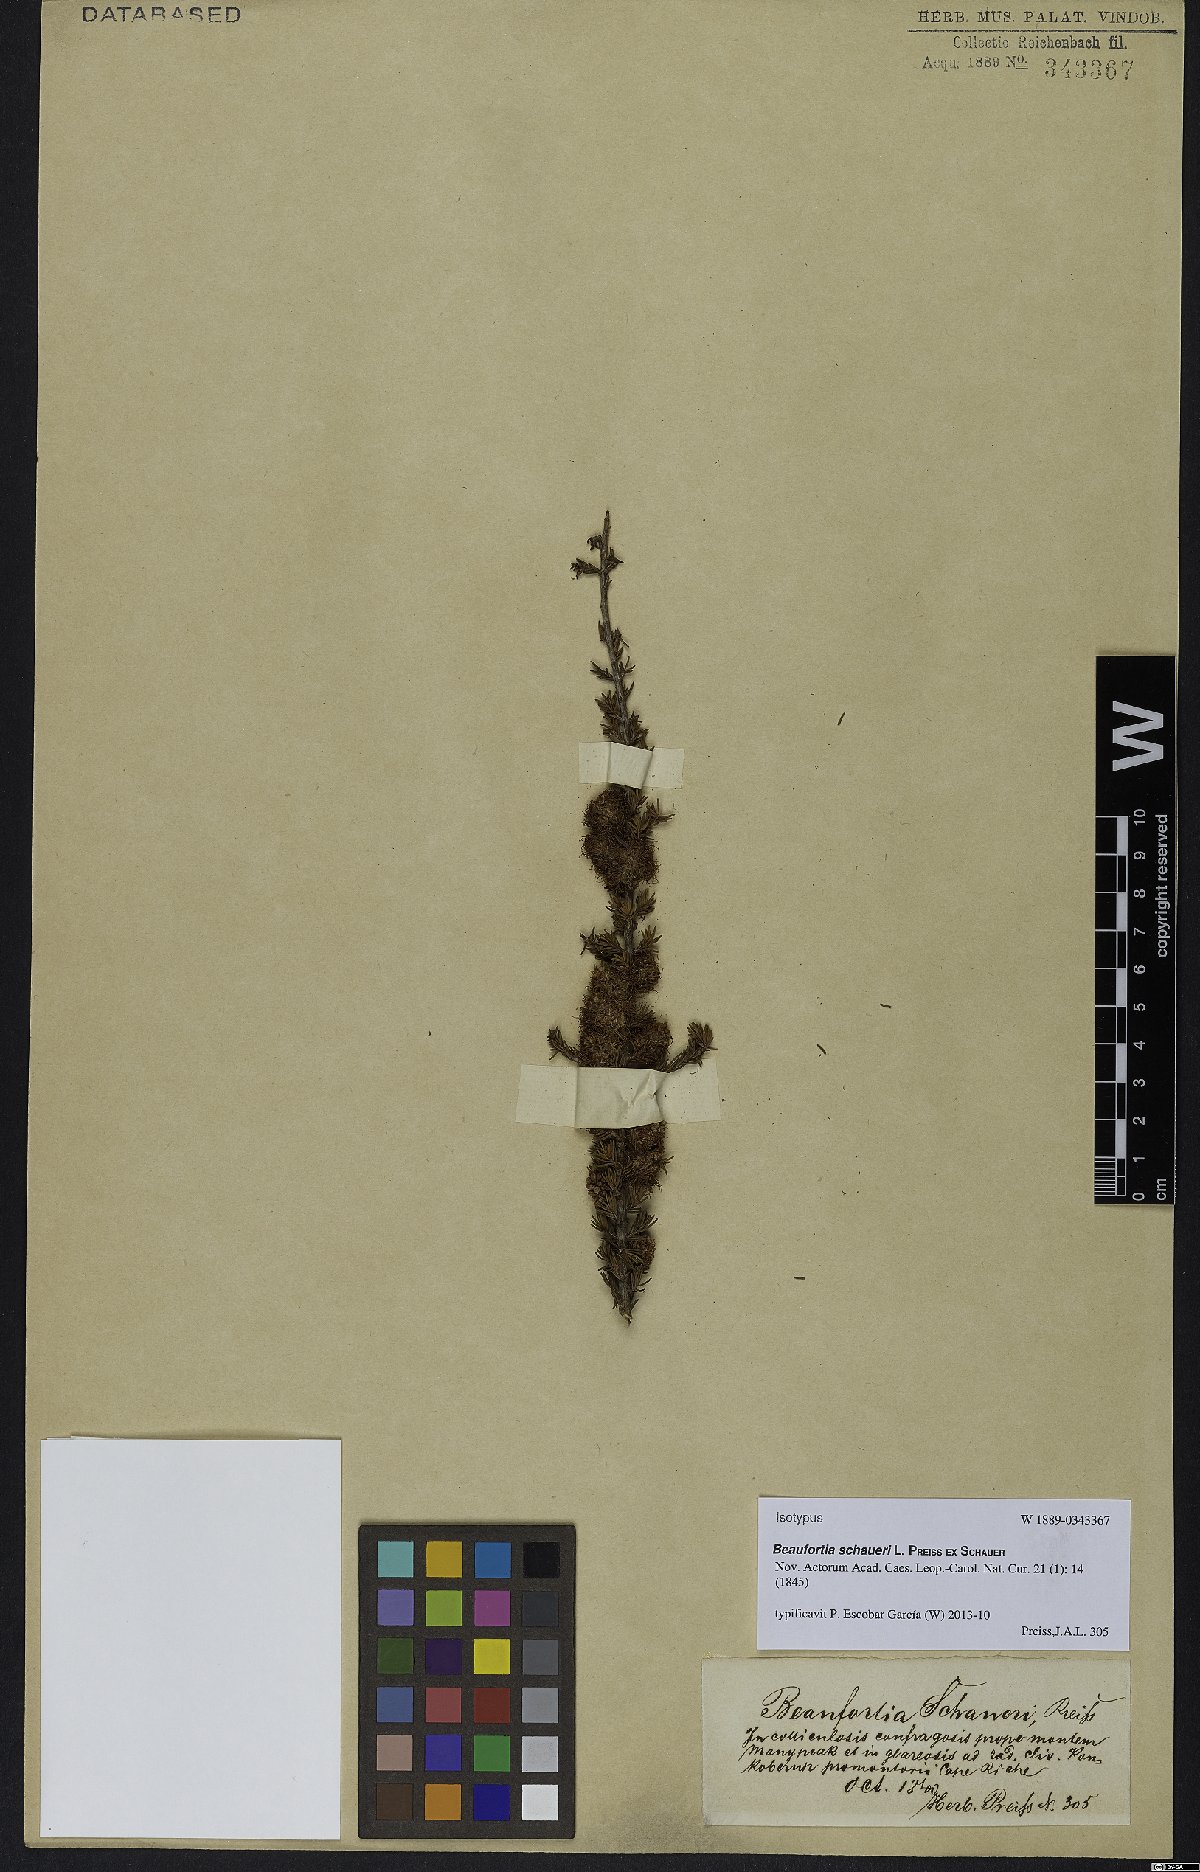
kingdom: Plantae
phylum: Tracheophyta
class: Magnoliopsida
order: Myrtales
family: Myrtaceae
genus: Melaleuca
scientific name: Melaleuca jonesii
